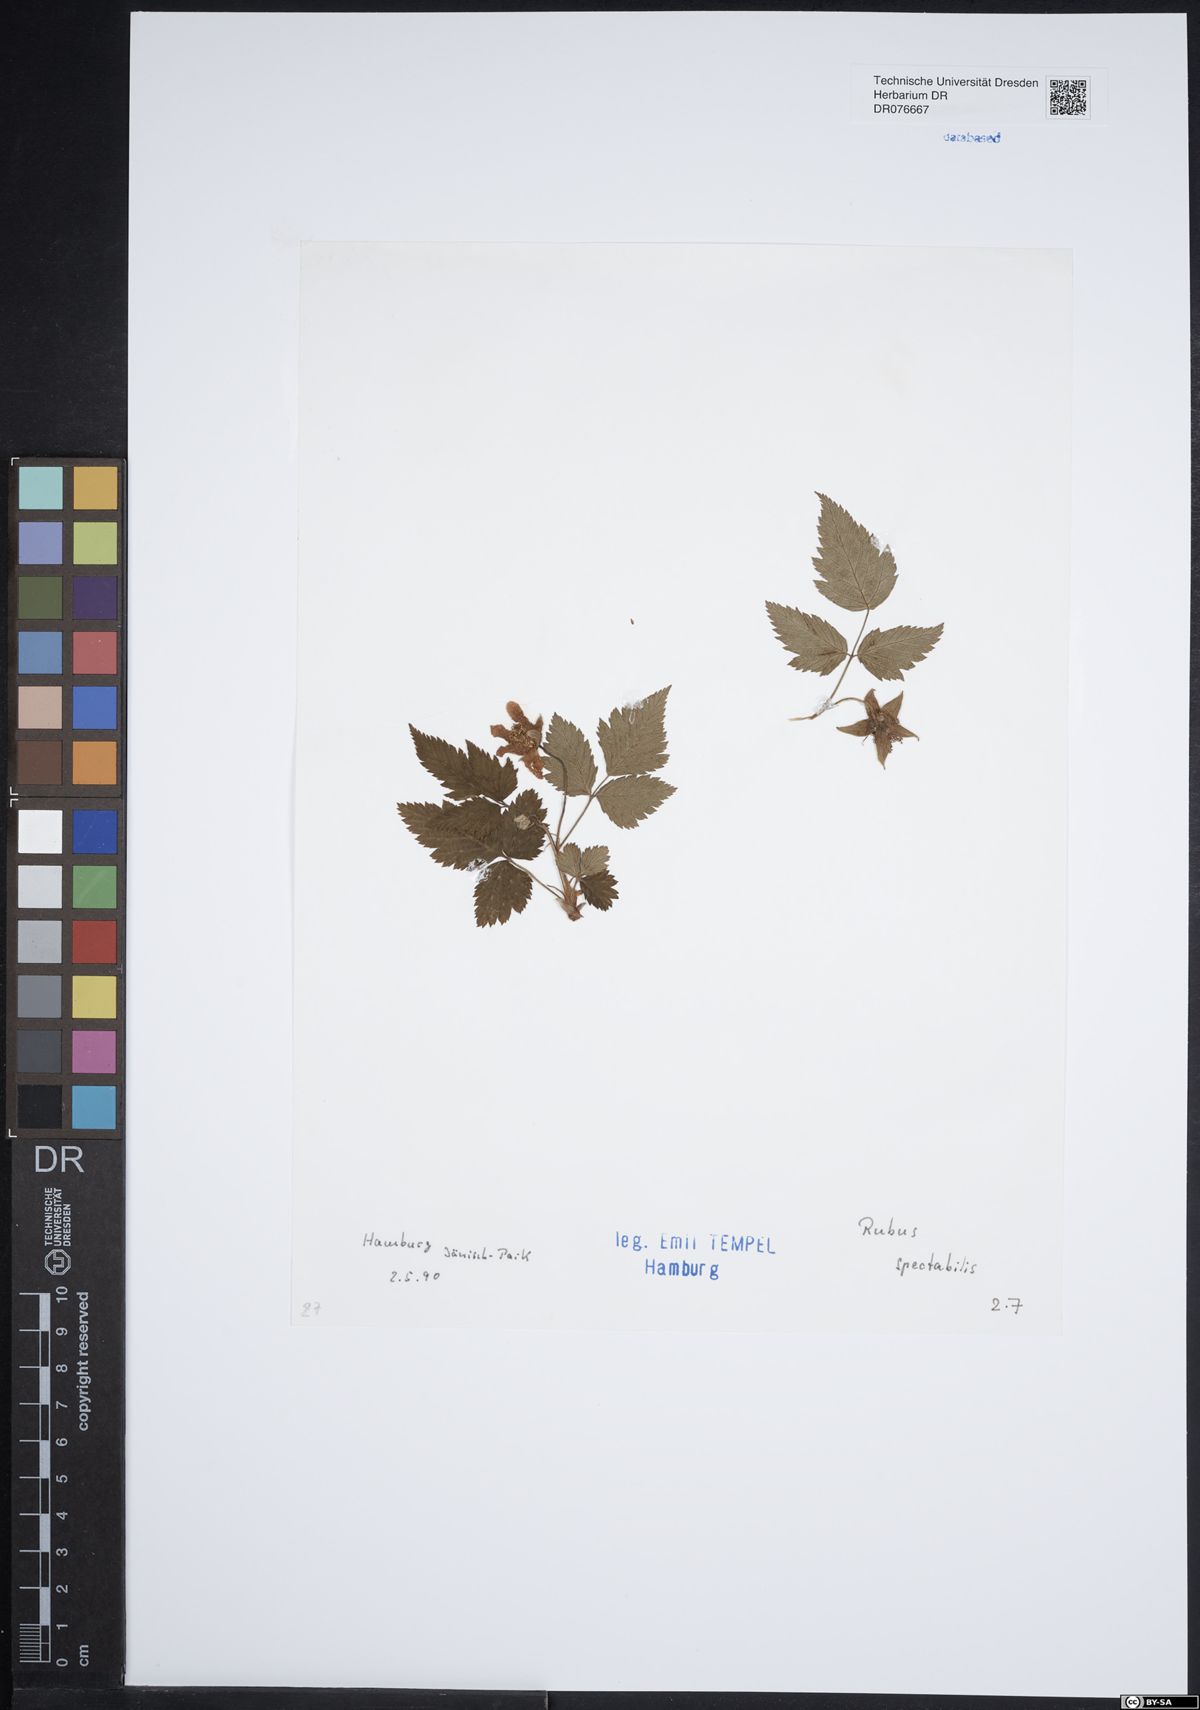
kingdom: Plantae
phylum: Tracheophyta
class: Magnoliopsida
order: Rosales
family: Rosaceae
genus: Rubus
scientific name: Rubus spectabilis
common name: Salmonberry
